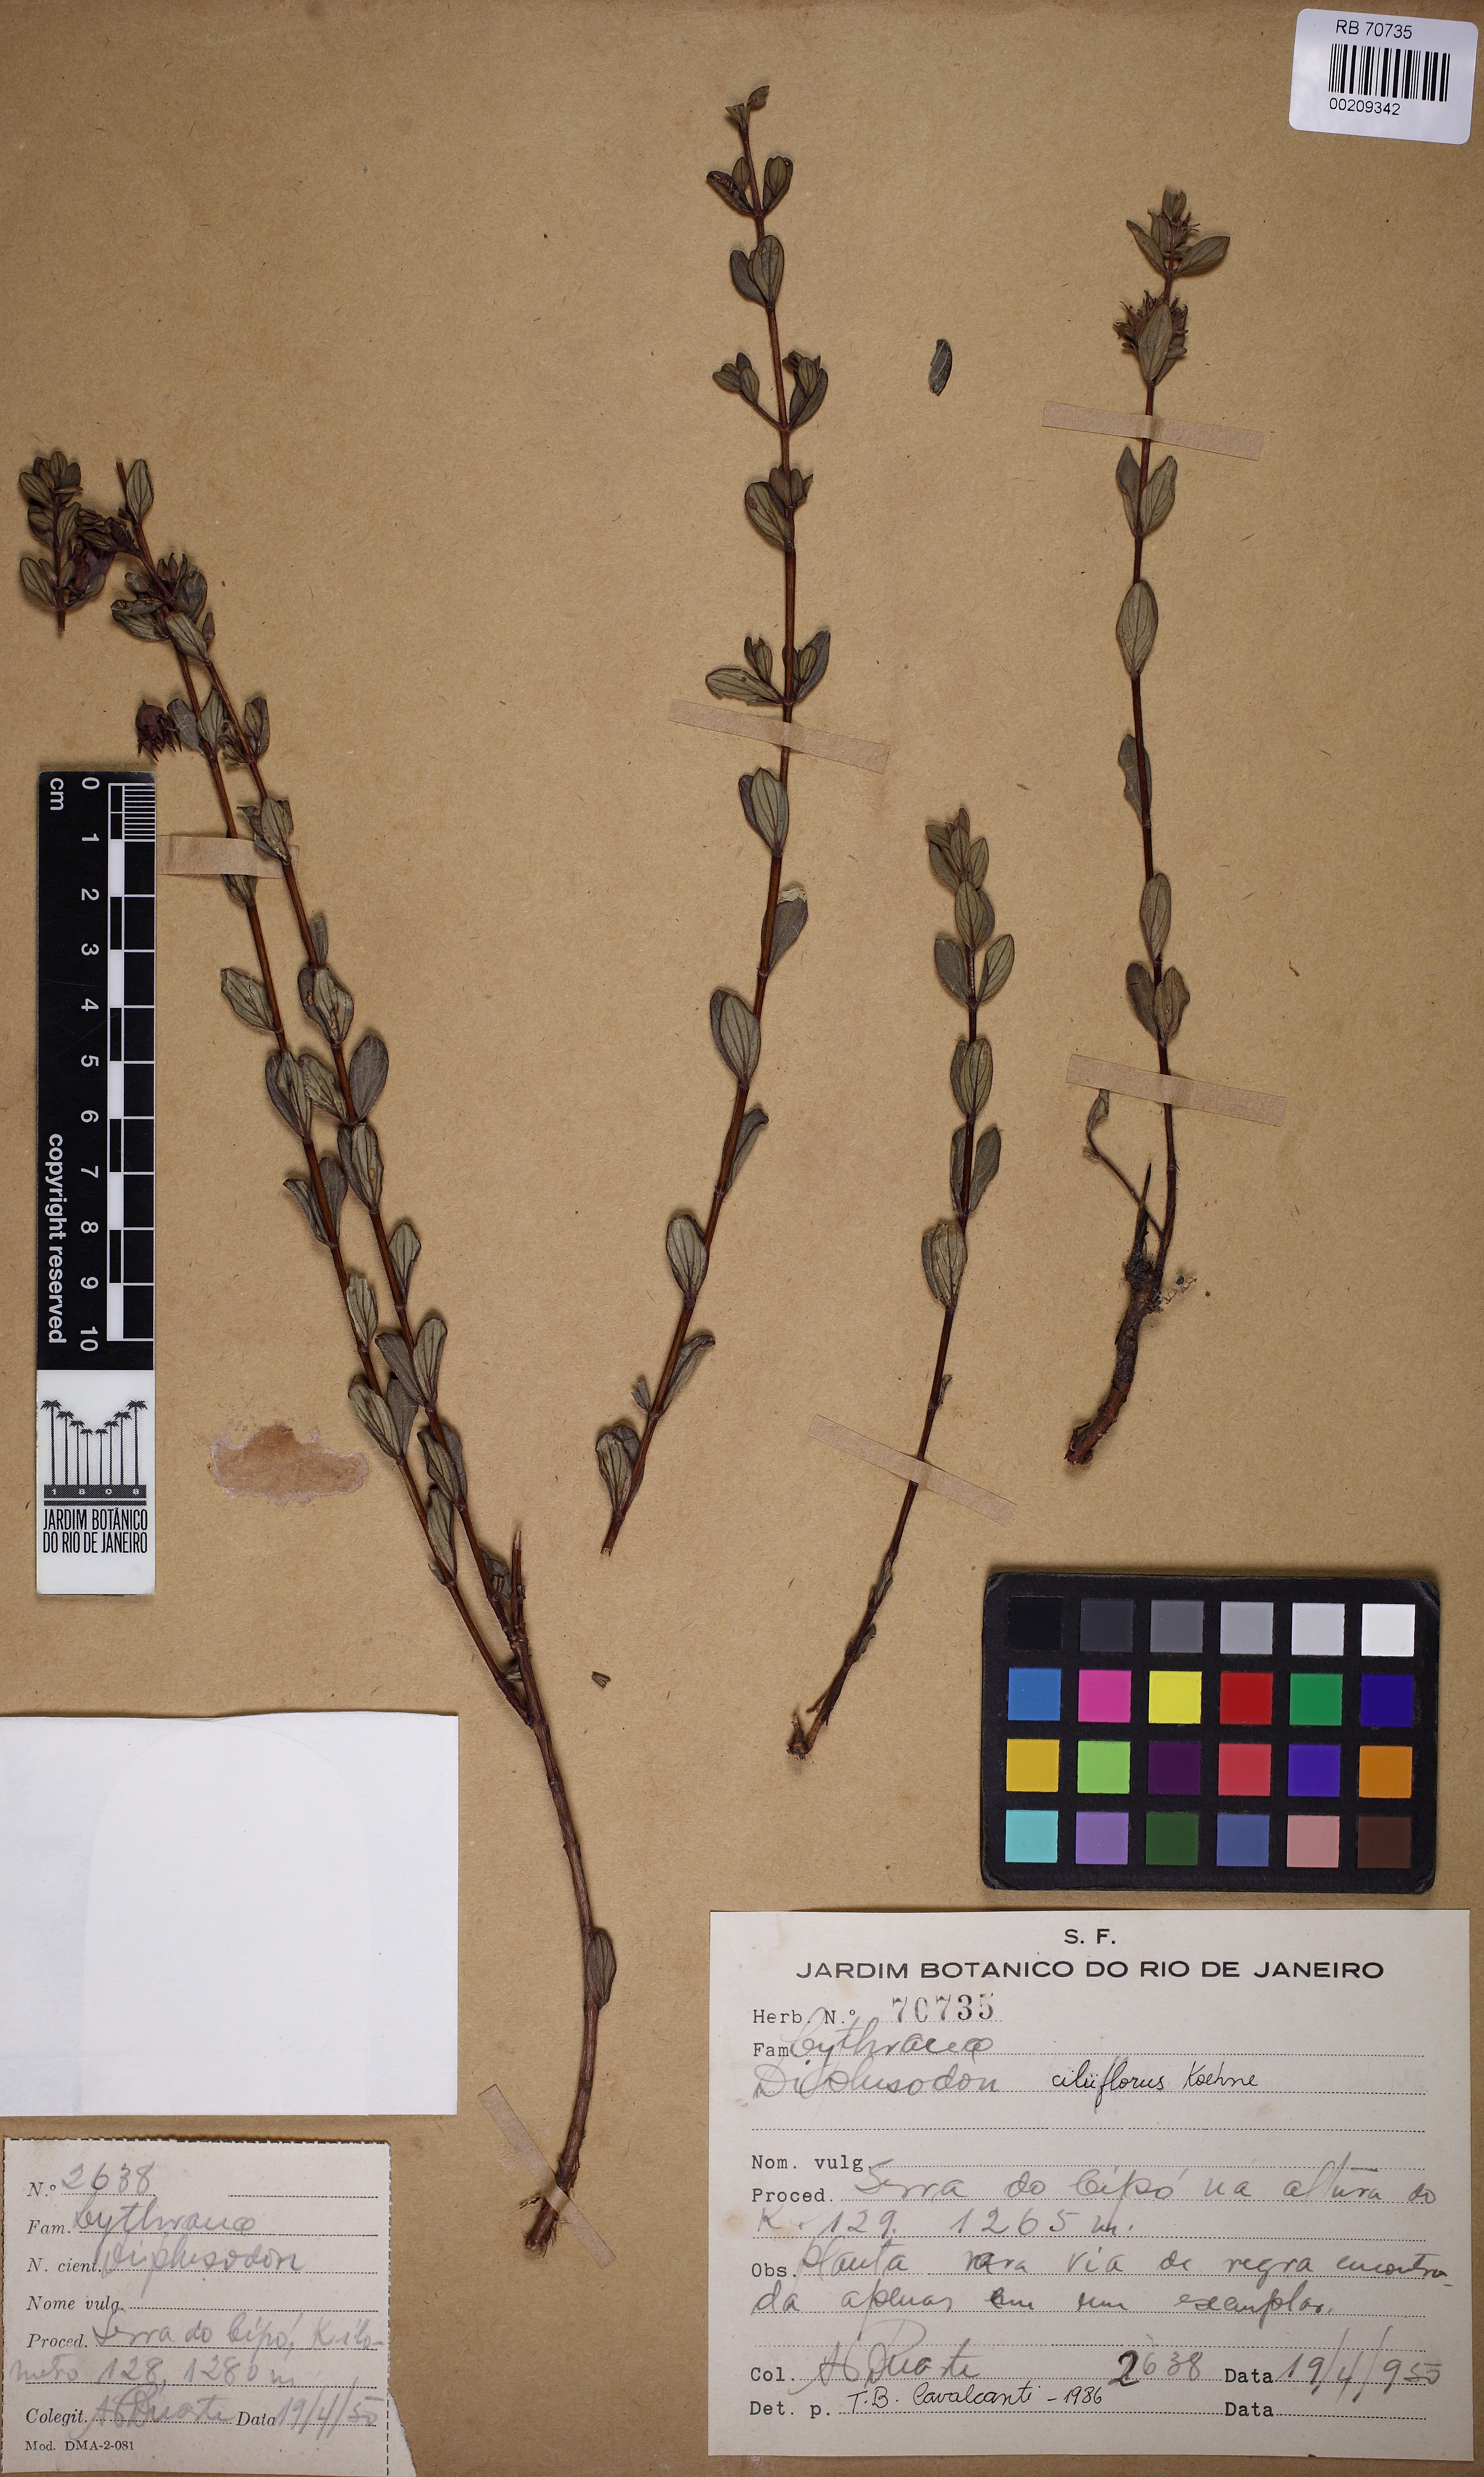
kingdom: Plantae
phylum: Tracheophyta
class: Magnoliopsida
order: Myrtales
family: Lythraceae
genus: Diplusodon
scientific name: Diplusodon ciliiflorus
